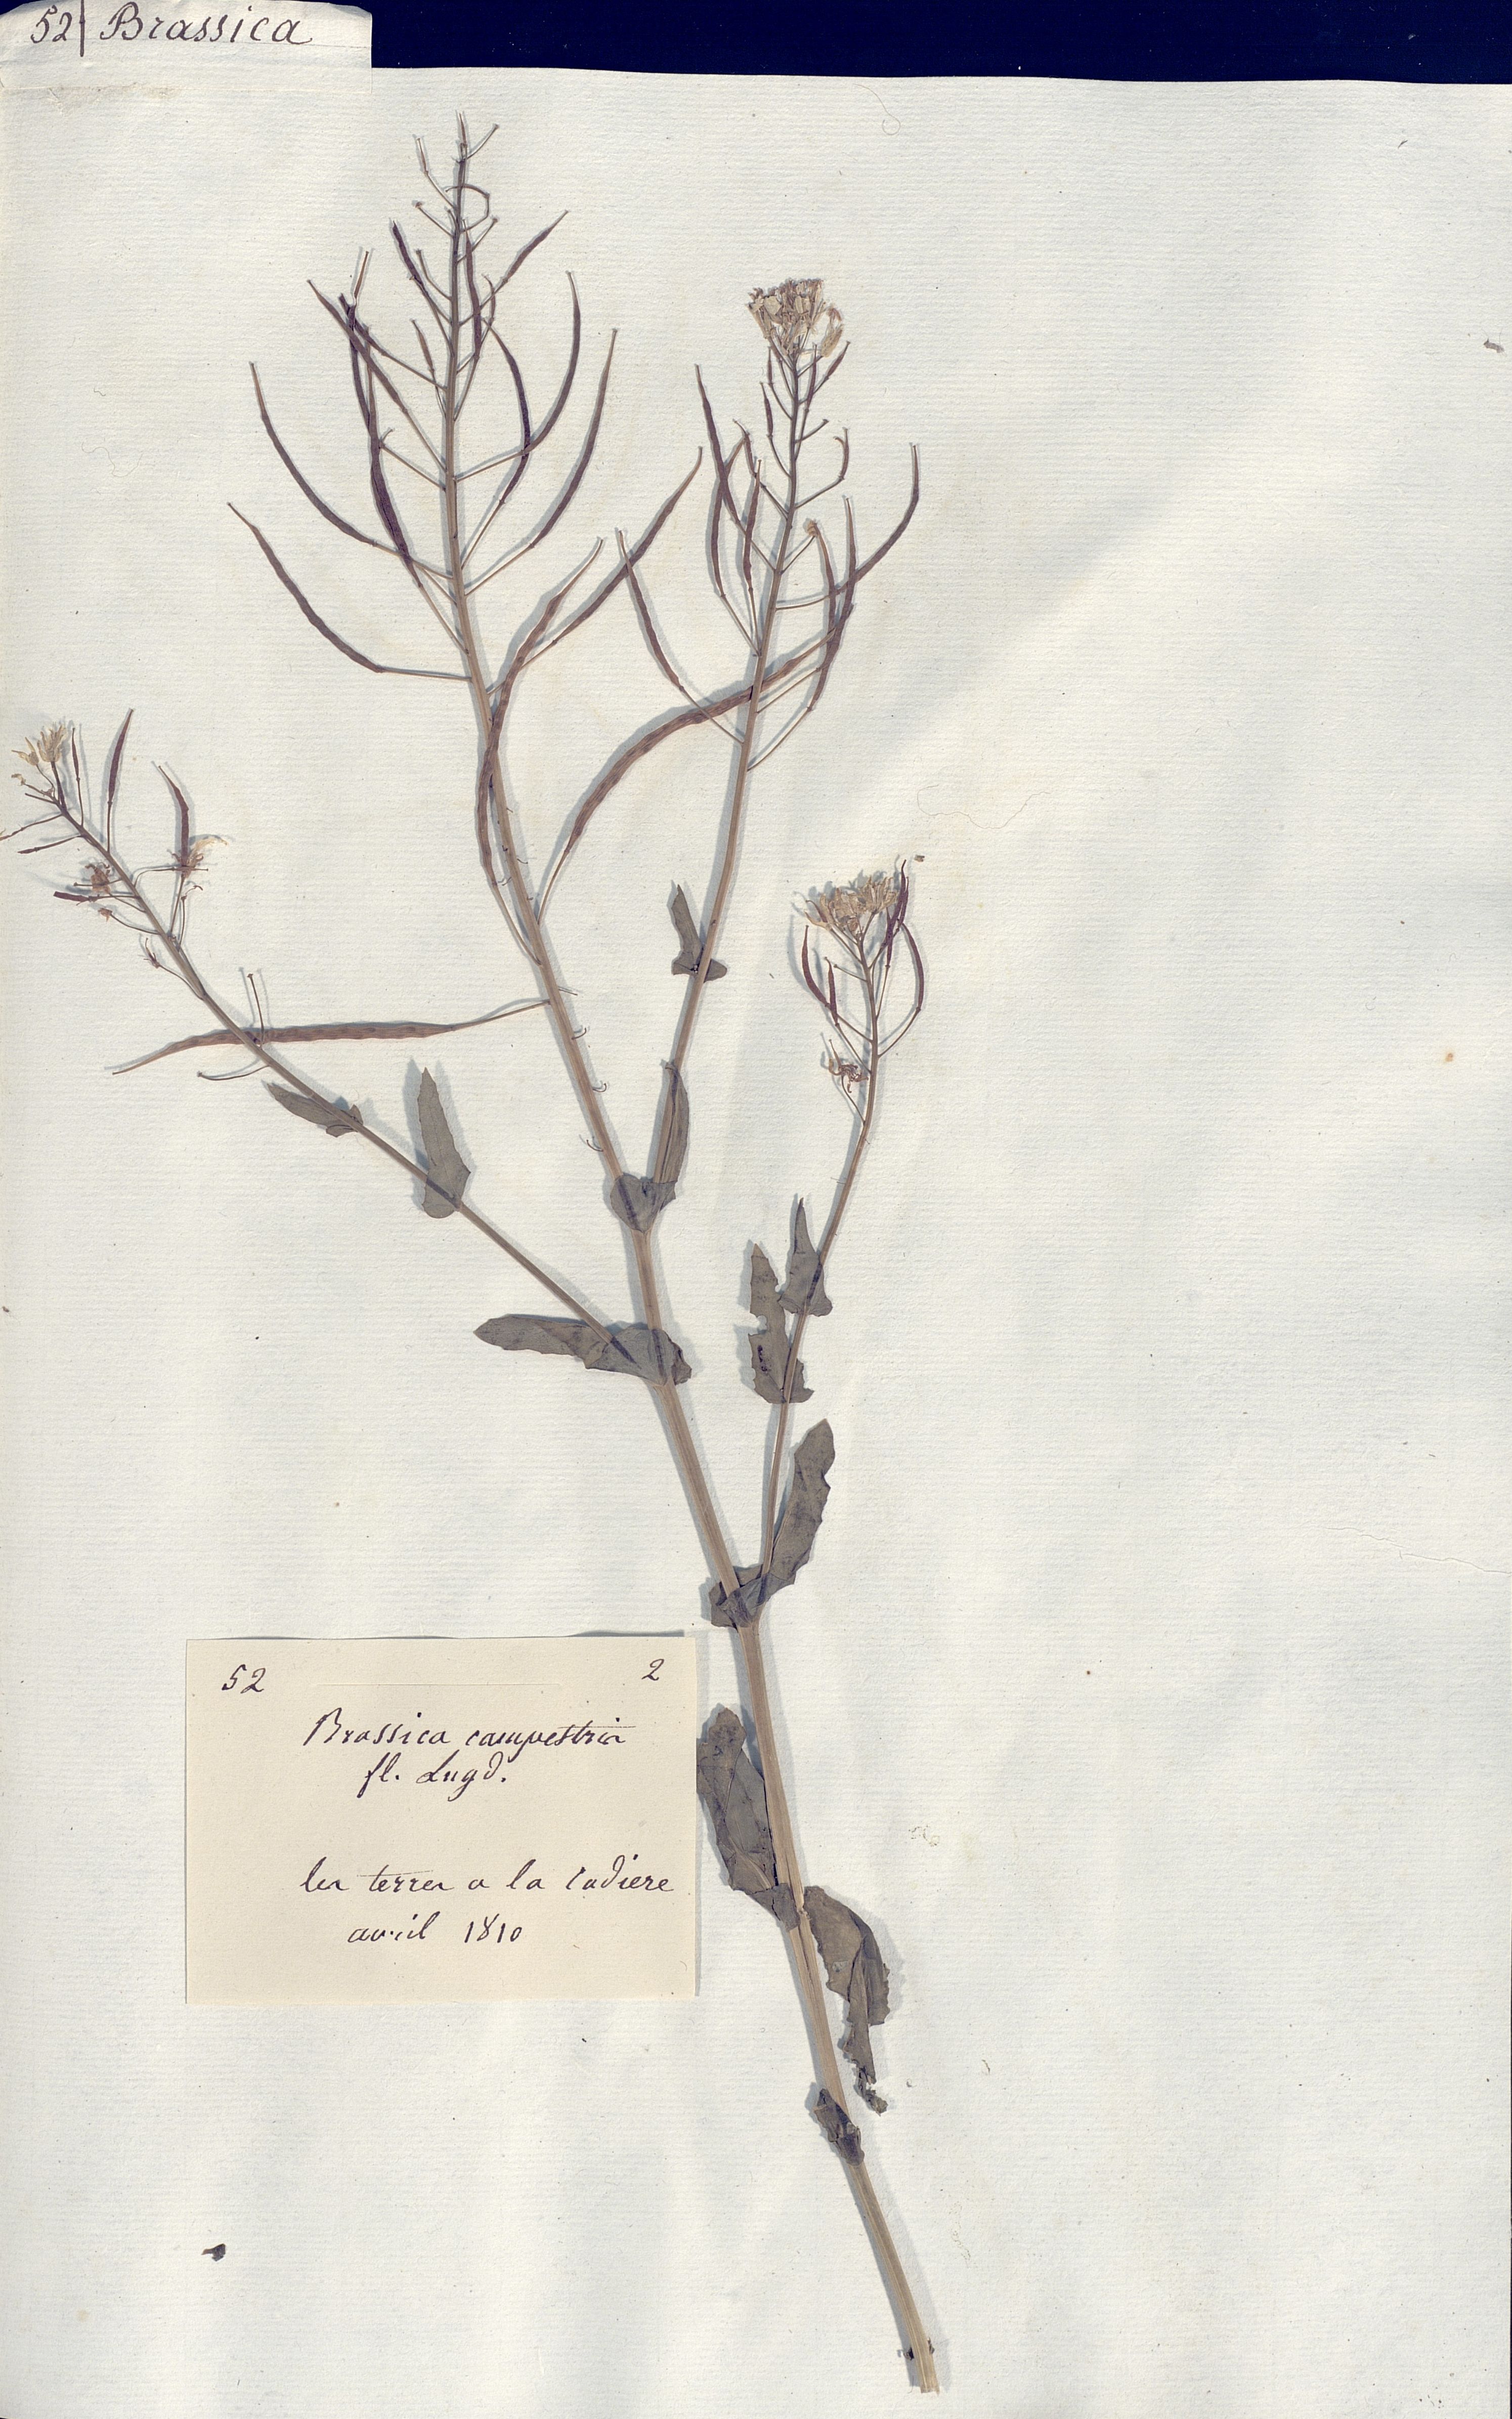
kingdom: Plantae
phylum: Tracheophyta
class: Magnoliopsida
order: Brassicales
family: Brassicaceae
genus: Brassica
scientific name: Brassica campestris
